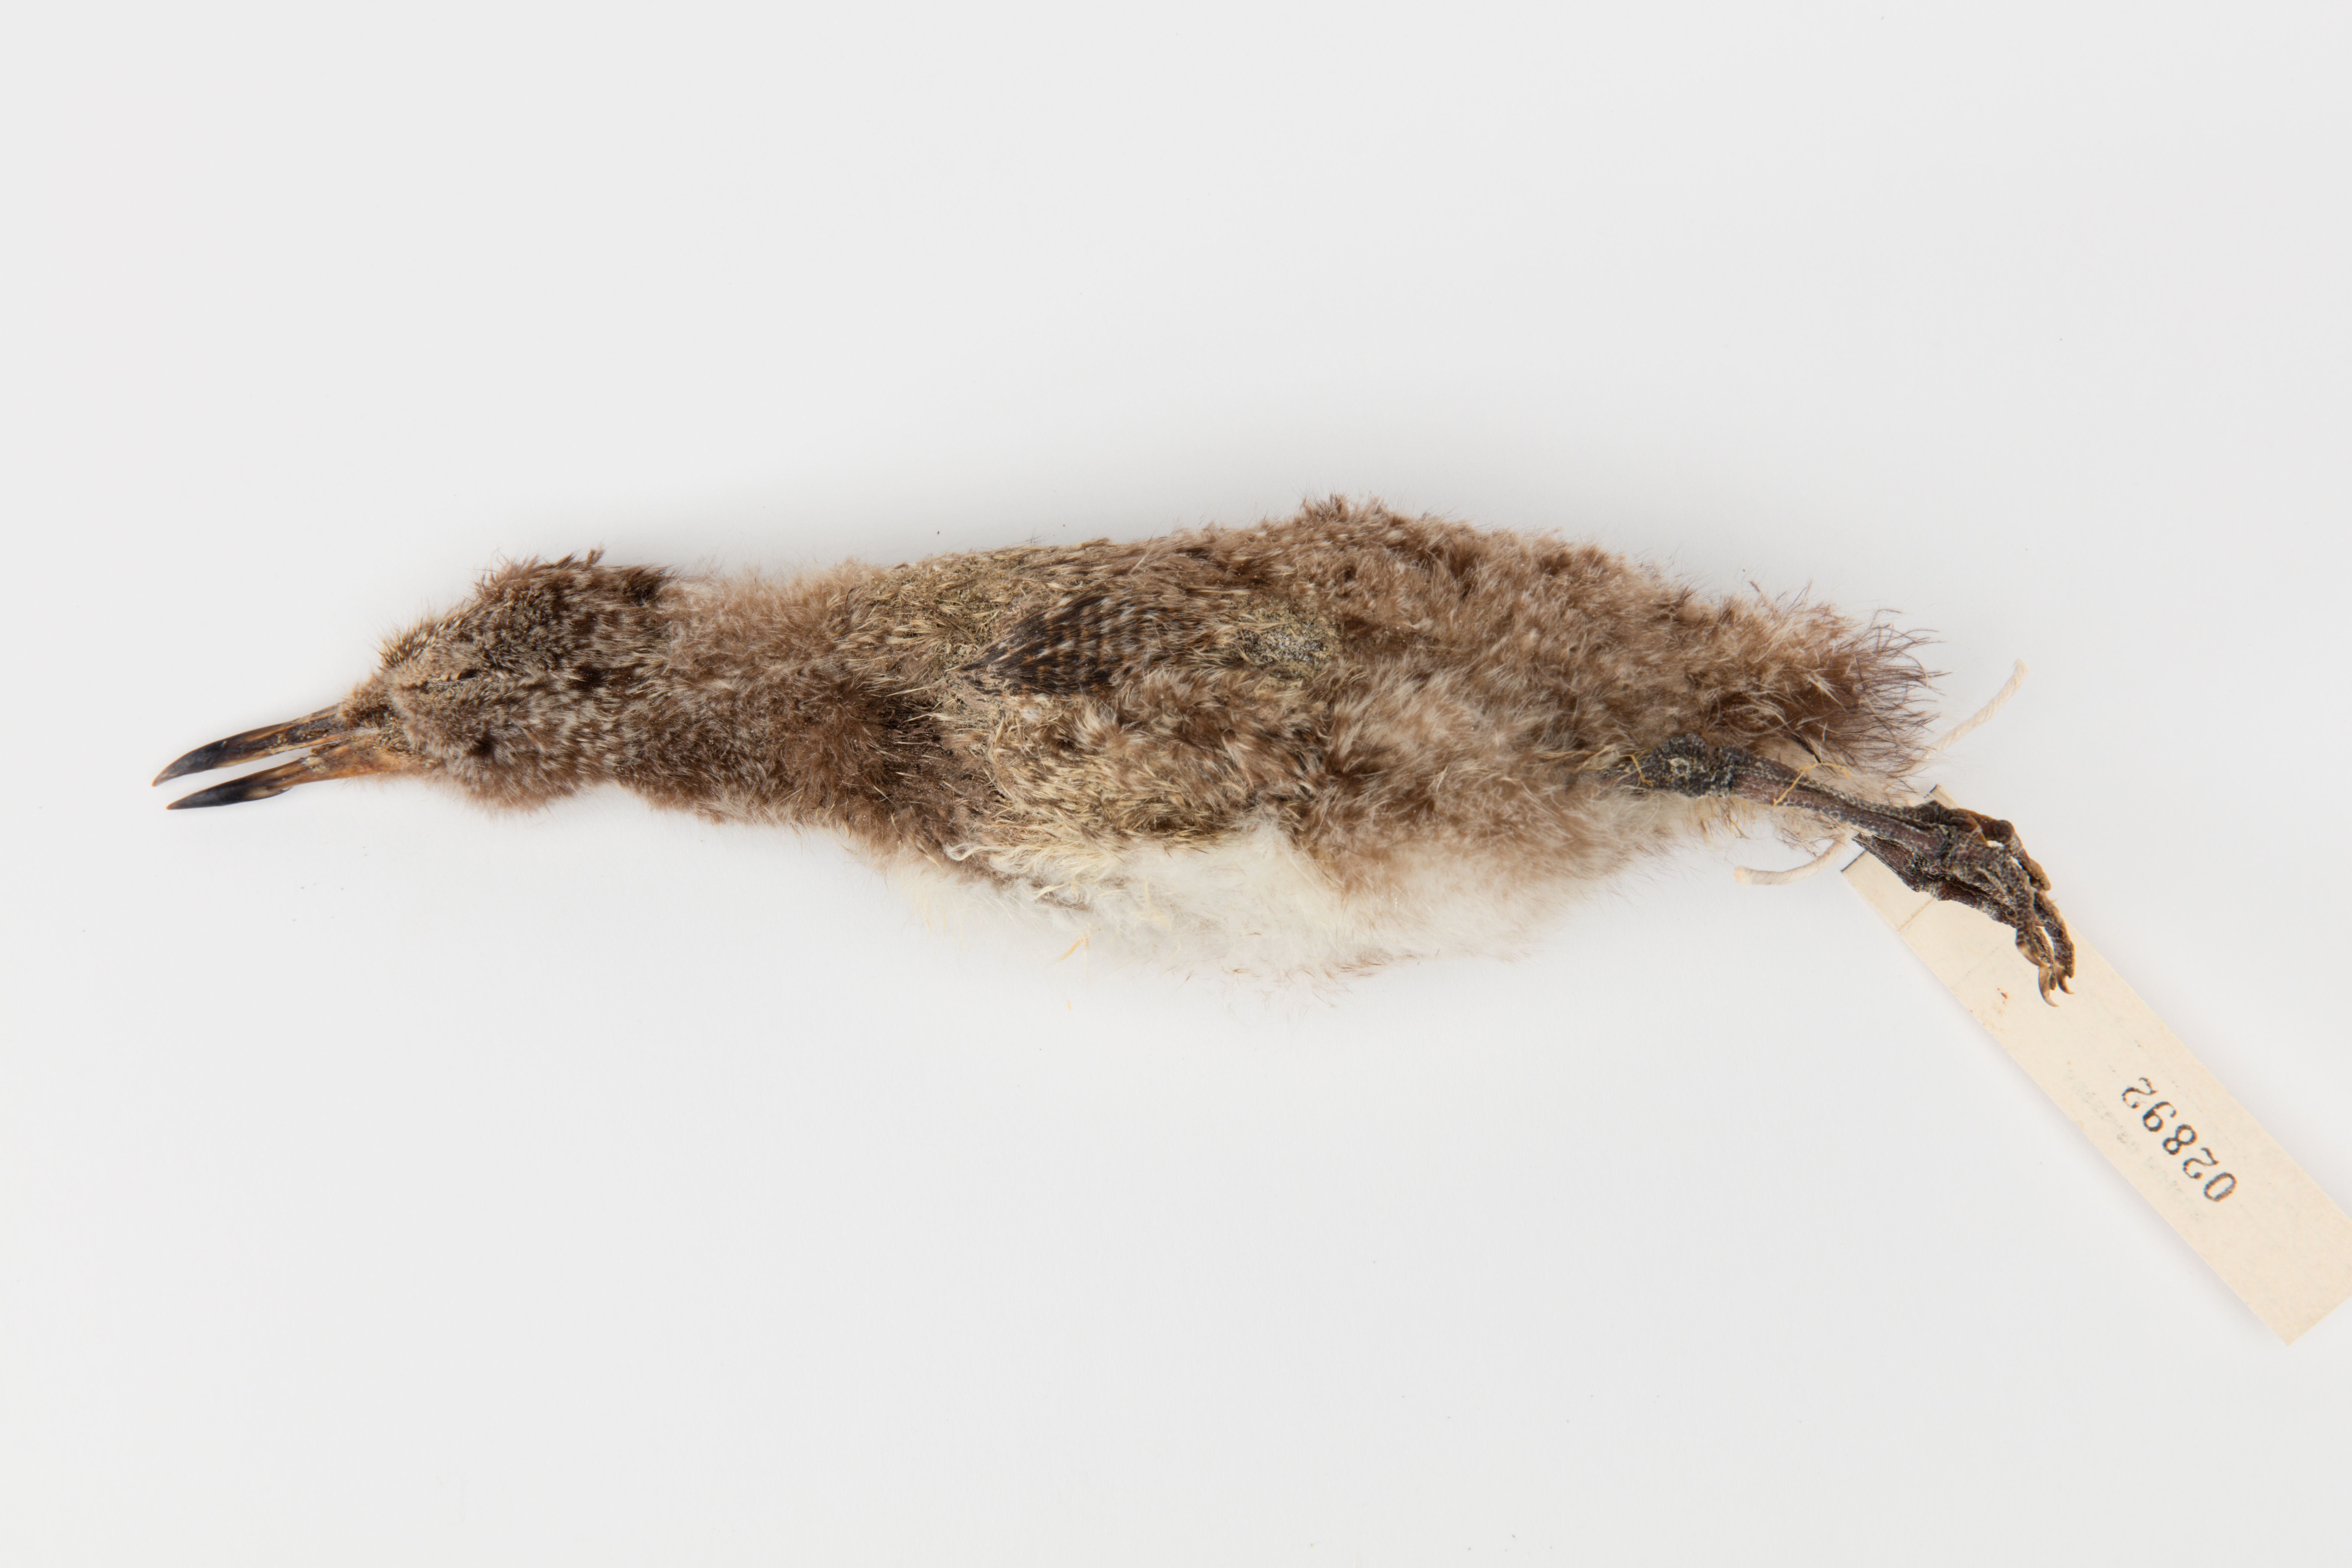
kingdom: Animalia
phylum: Chordata
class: Aves
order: Charadriiformes
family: Haematopodidae
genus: Haematopus
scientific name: Haematopus unicolor
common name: Variable oystercatcher
